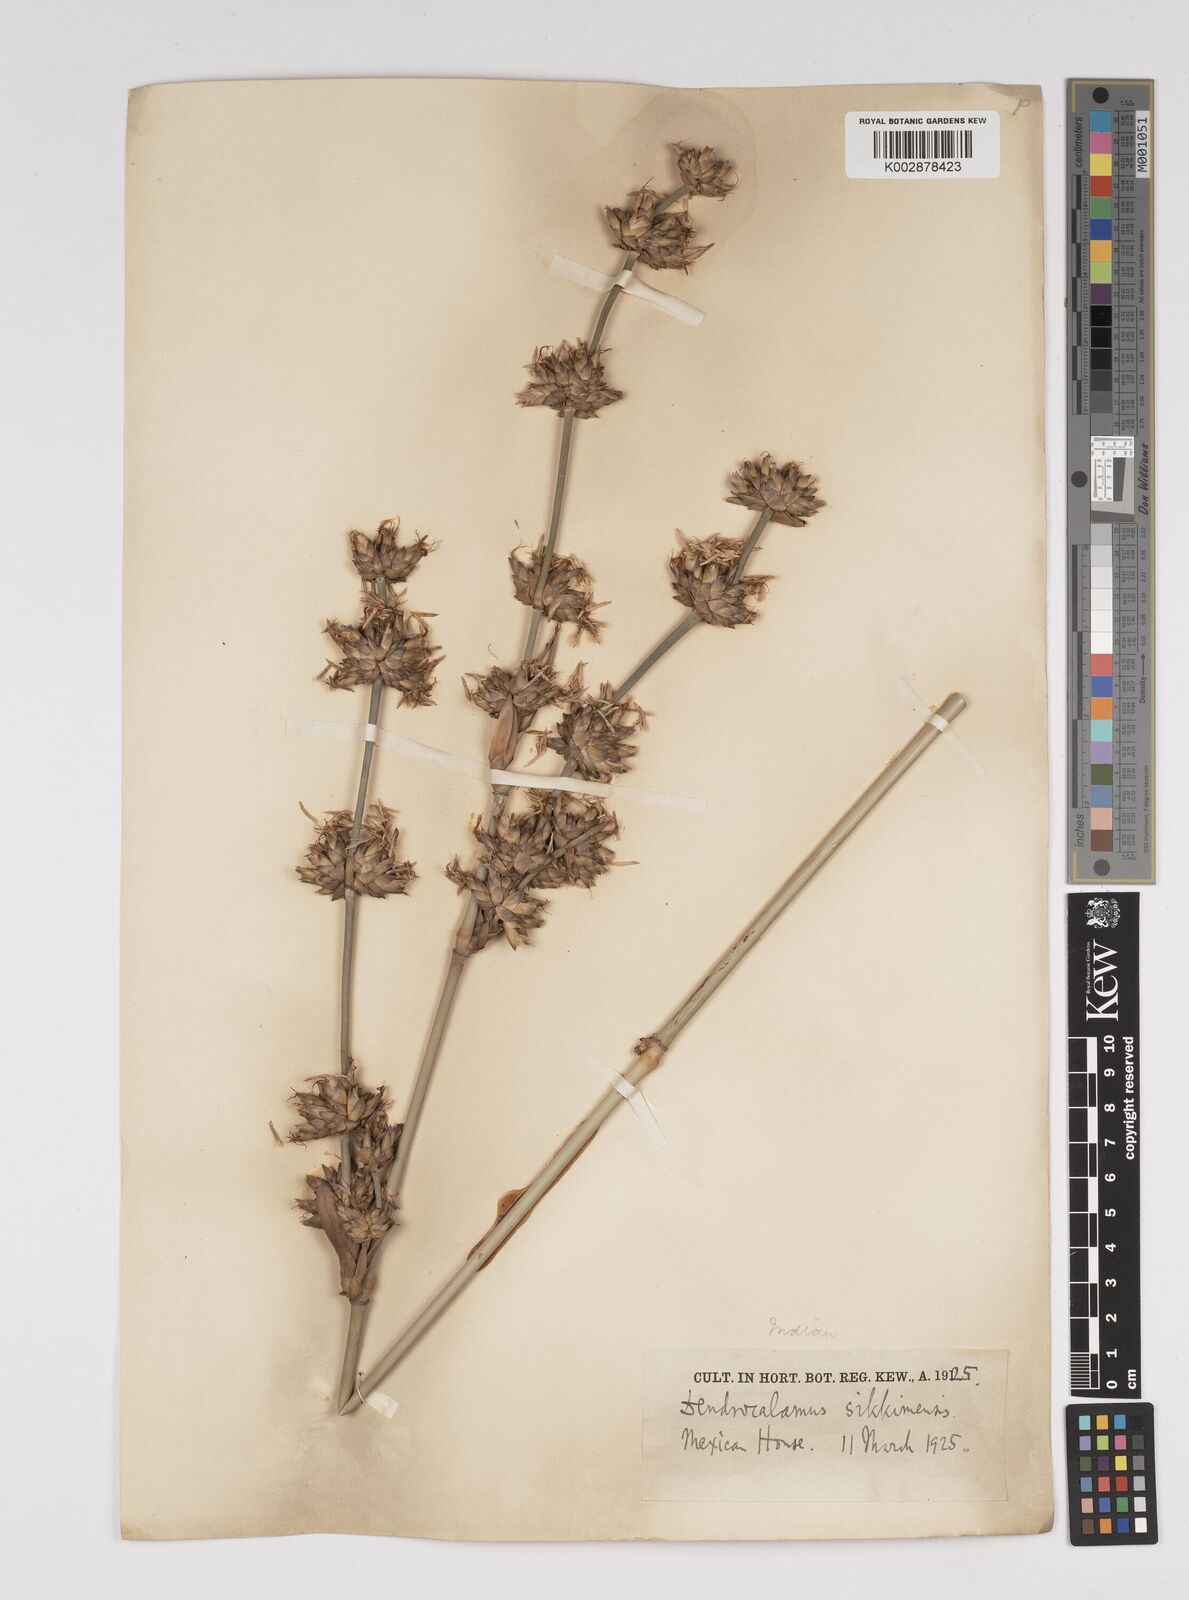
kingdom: Plantae
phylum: Tracheophyta
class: Liliopsida
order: Poales
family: Poaceae
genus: Dendrocalamus
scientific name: Dendrocalamus sikkimensis
